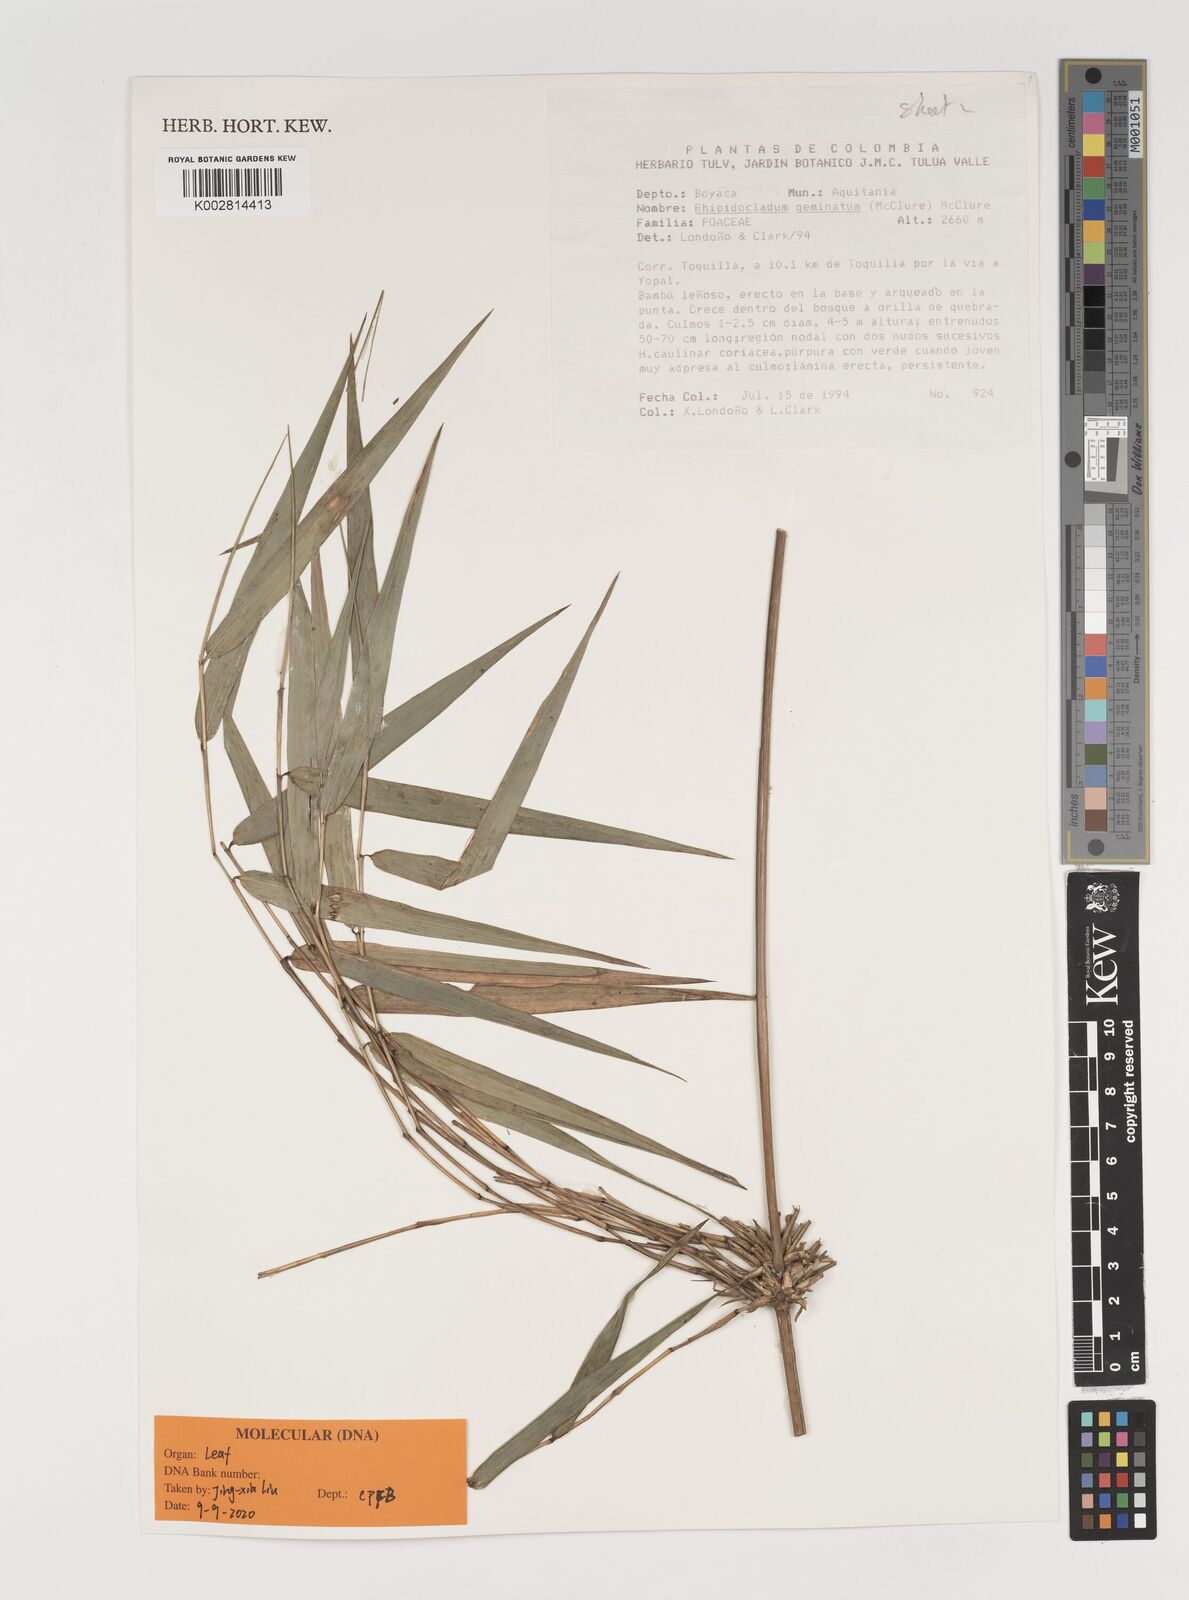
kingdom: Plantae
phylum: Tracheophyta
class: Liliopsida
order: Poales
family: Poaceae
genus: Didymogonyx
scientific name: Didymogonyx geminatum
